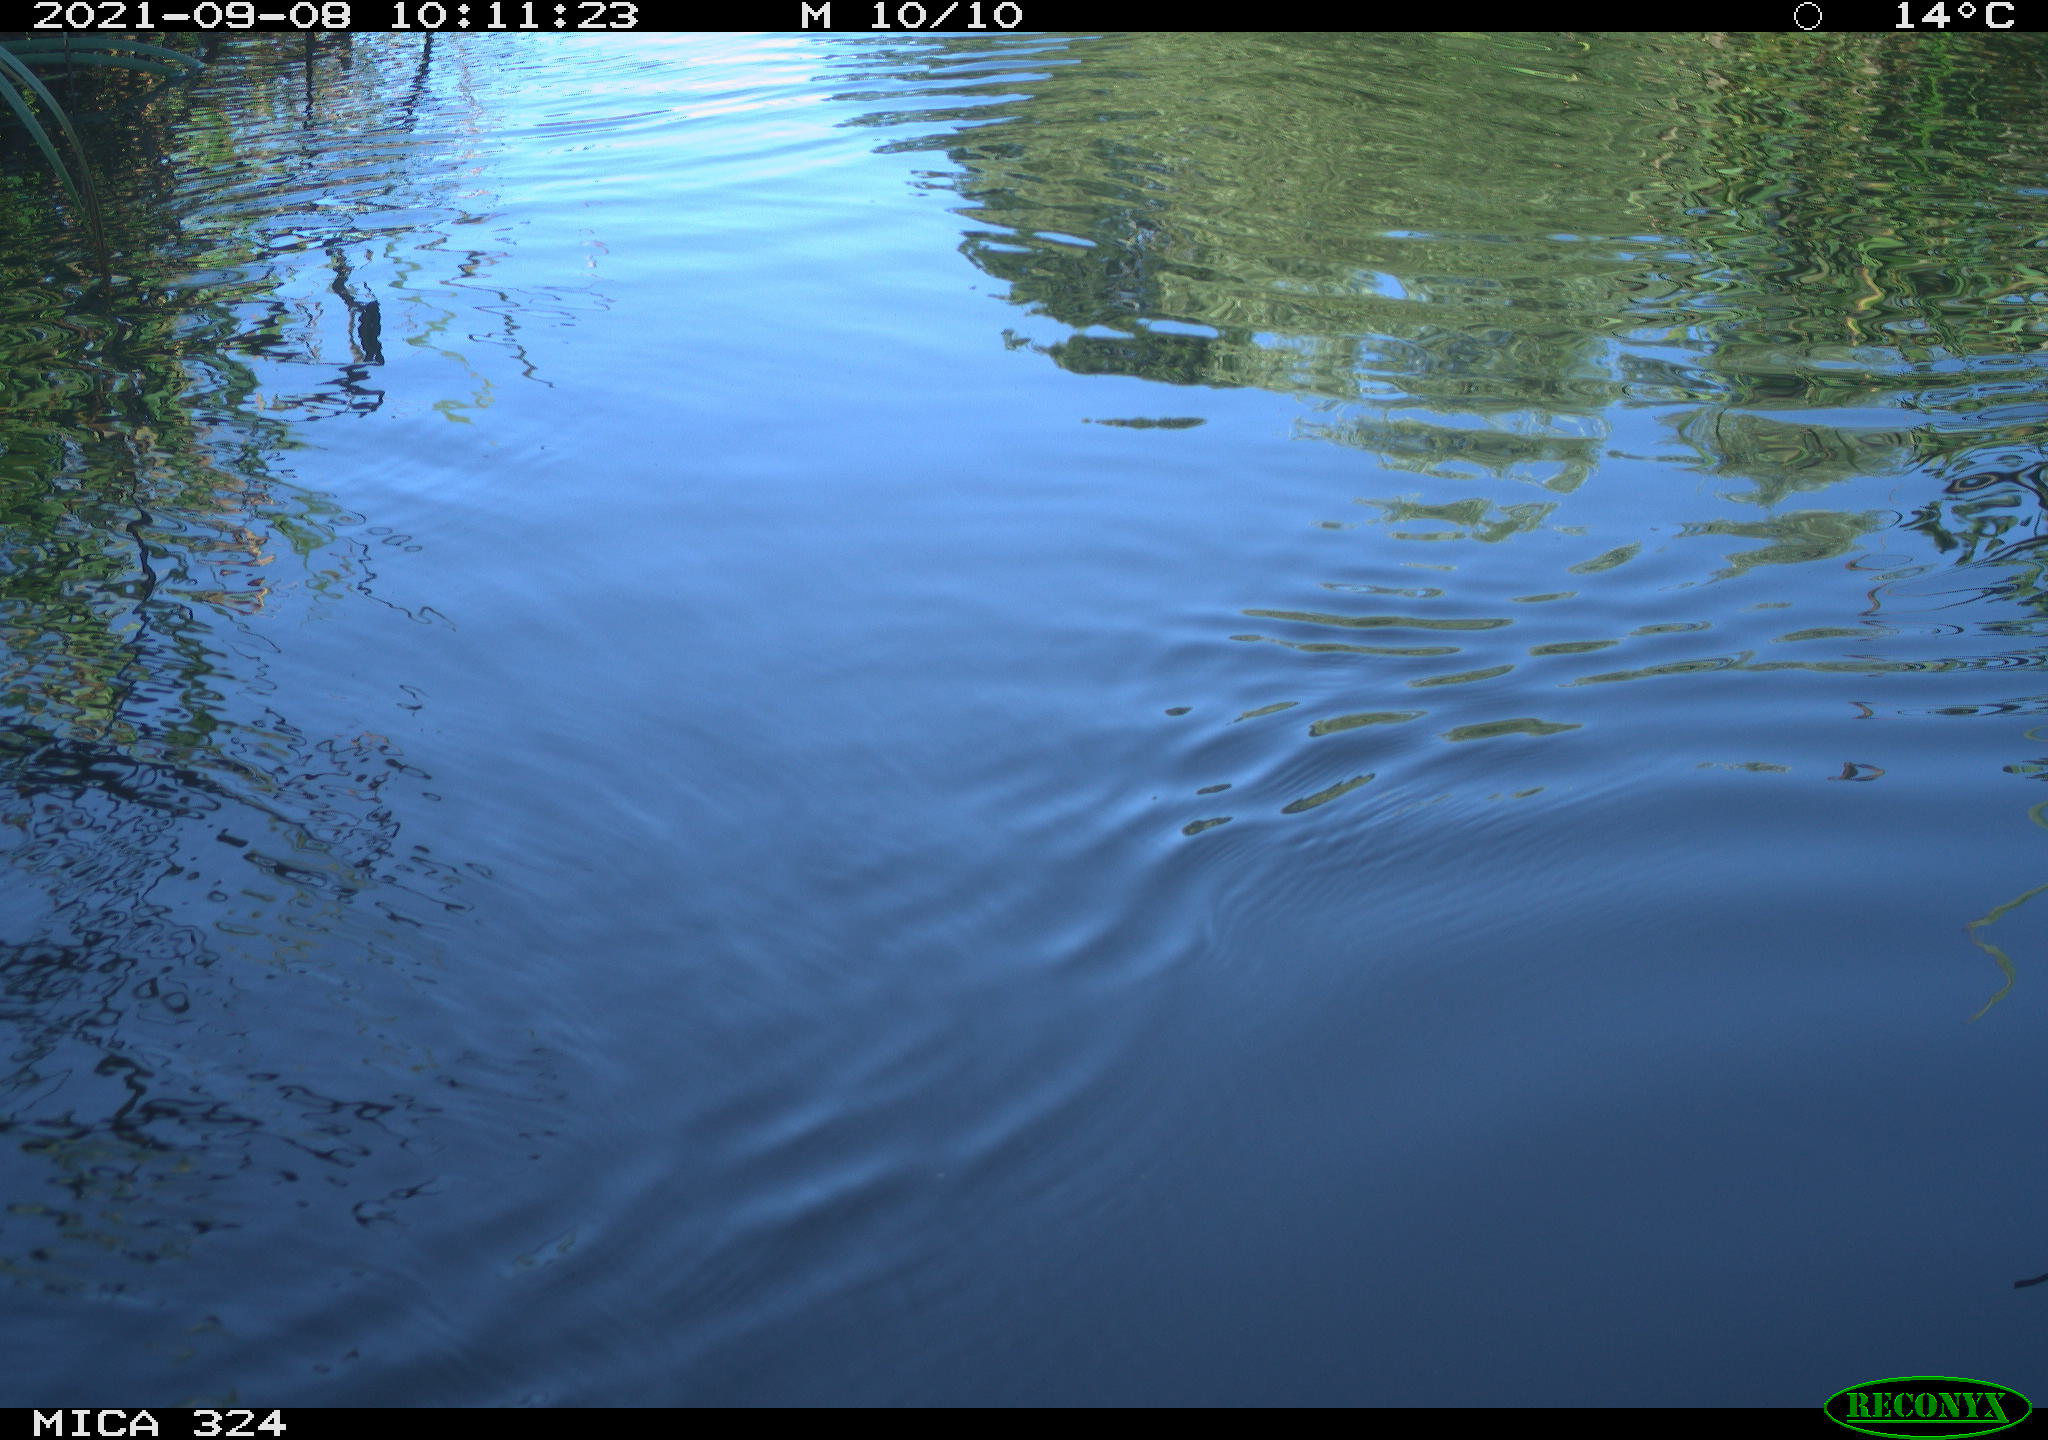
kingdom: Animalia
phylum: Chordata
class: Mammalia
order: Rodentia
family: Cricetidae
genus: Ondatra
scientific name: Ondatra zibethicus
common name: Muskrat
